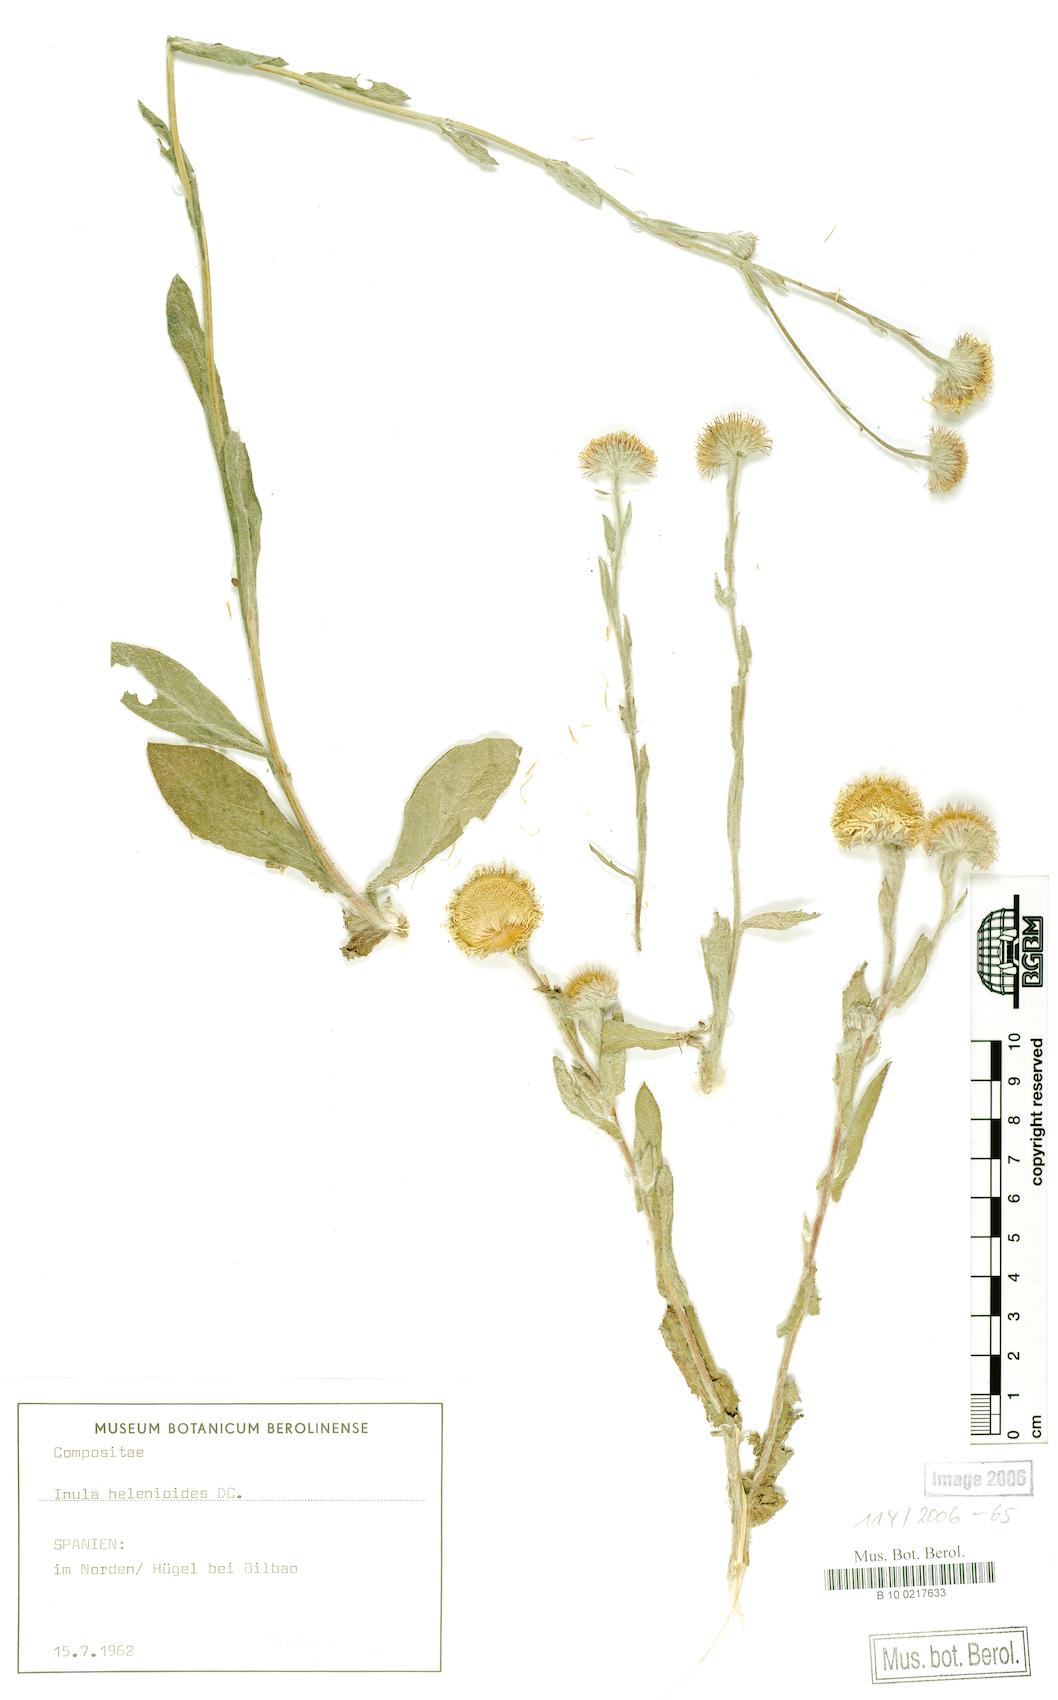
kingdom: Plantae
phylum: Tracheophyta
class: Magnoliopsida
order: Asterales
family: Asteraceae
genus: Pentanema
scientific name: Pentanema helenioides
